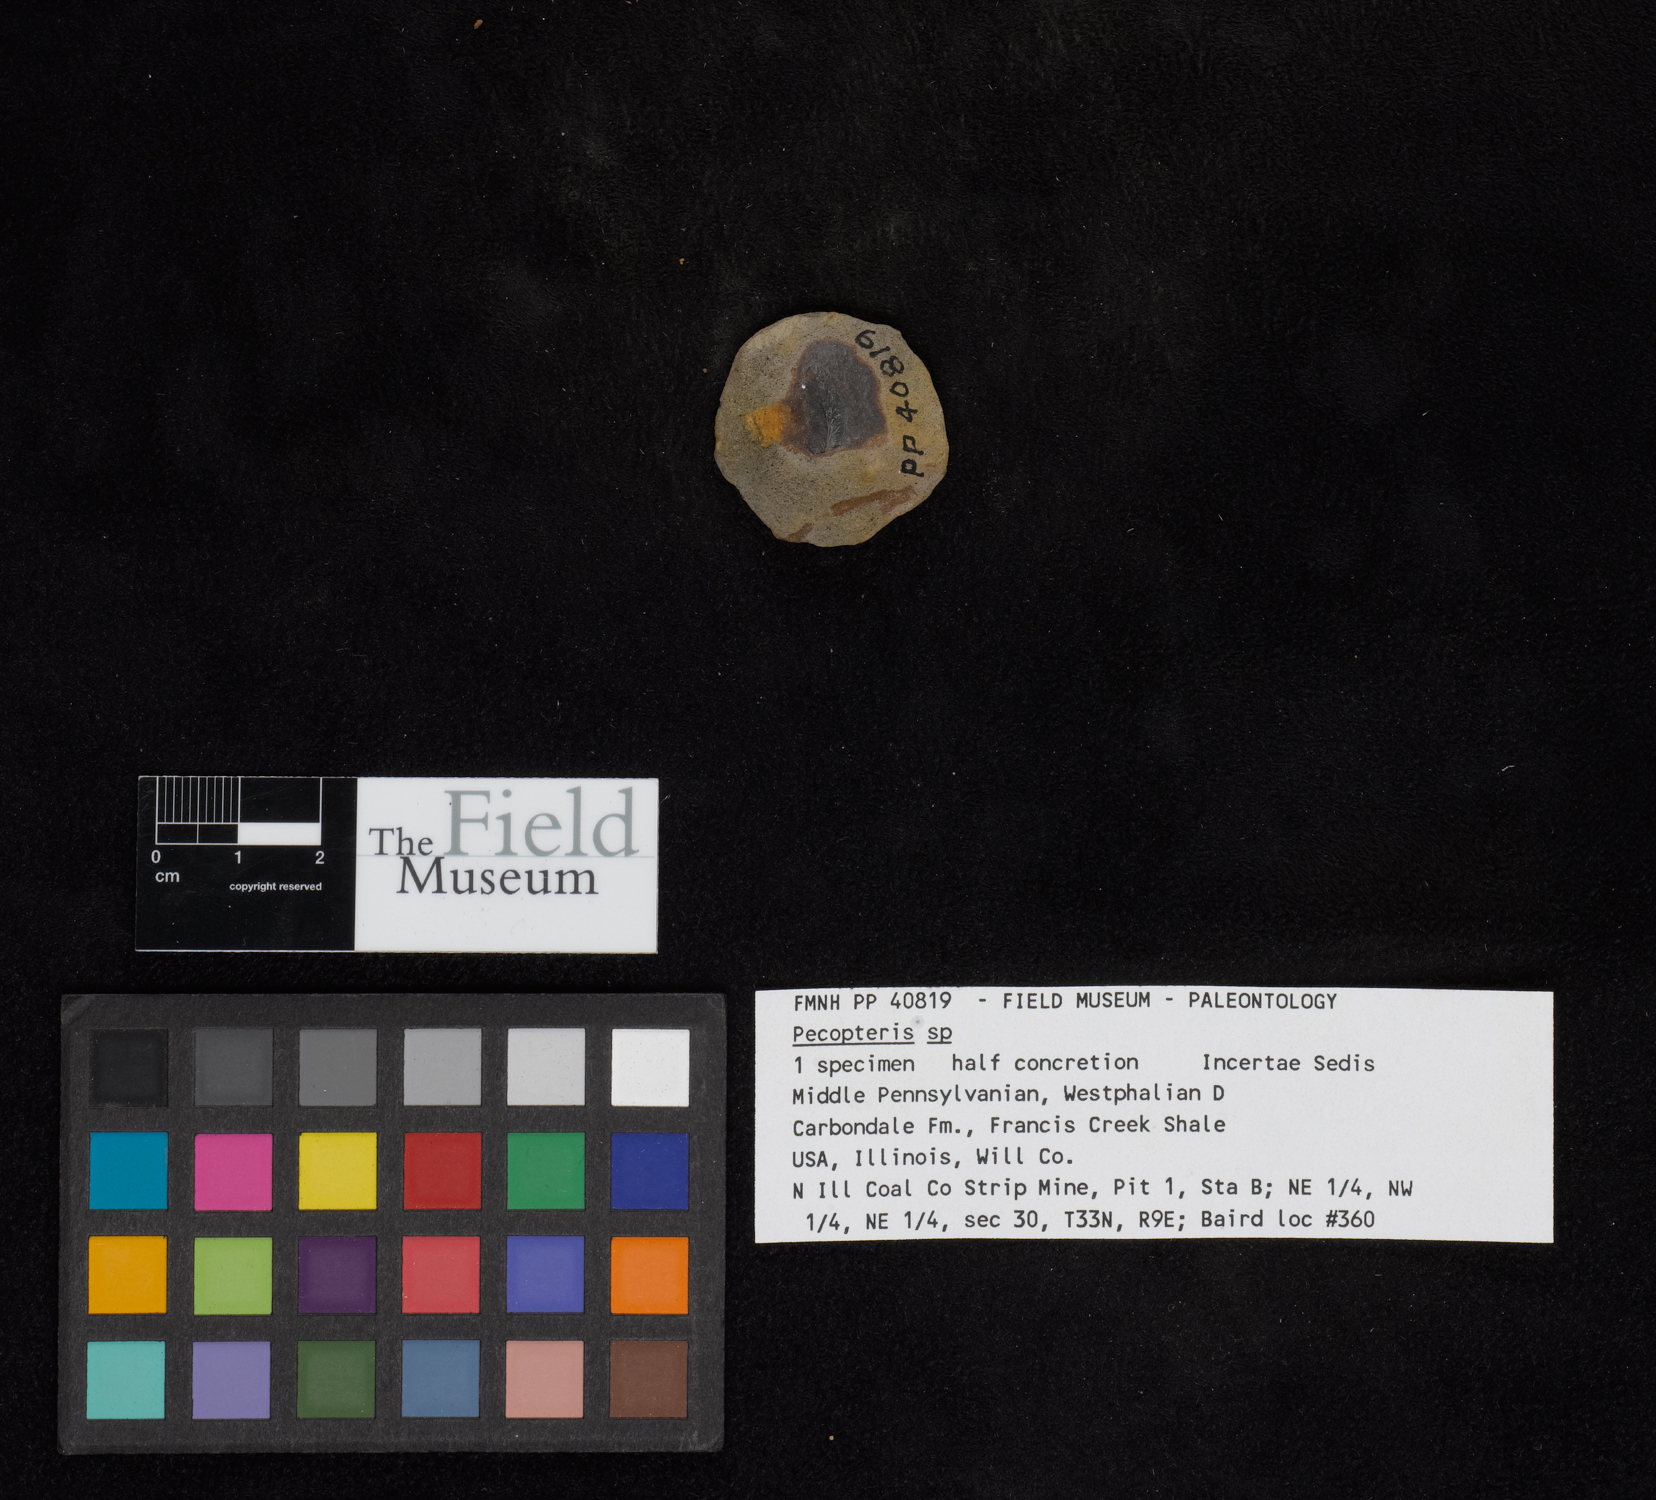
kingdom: Plantae
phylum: Tracheophyta
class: Polypodiopsida
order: Marattiales
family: Asterothecaceae
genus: Pecopteris
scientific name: Pecopteris
